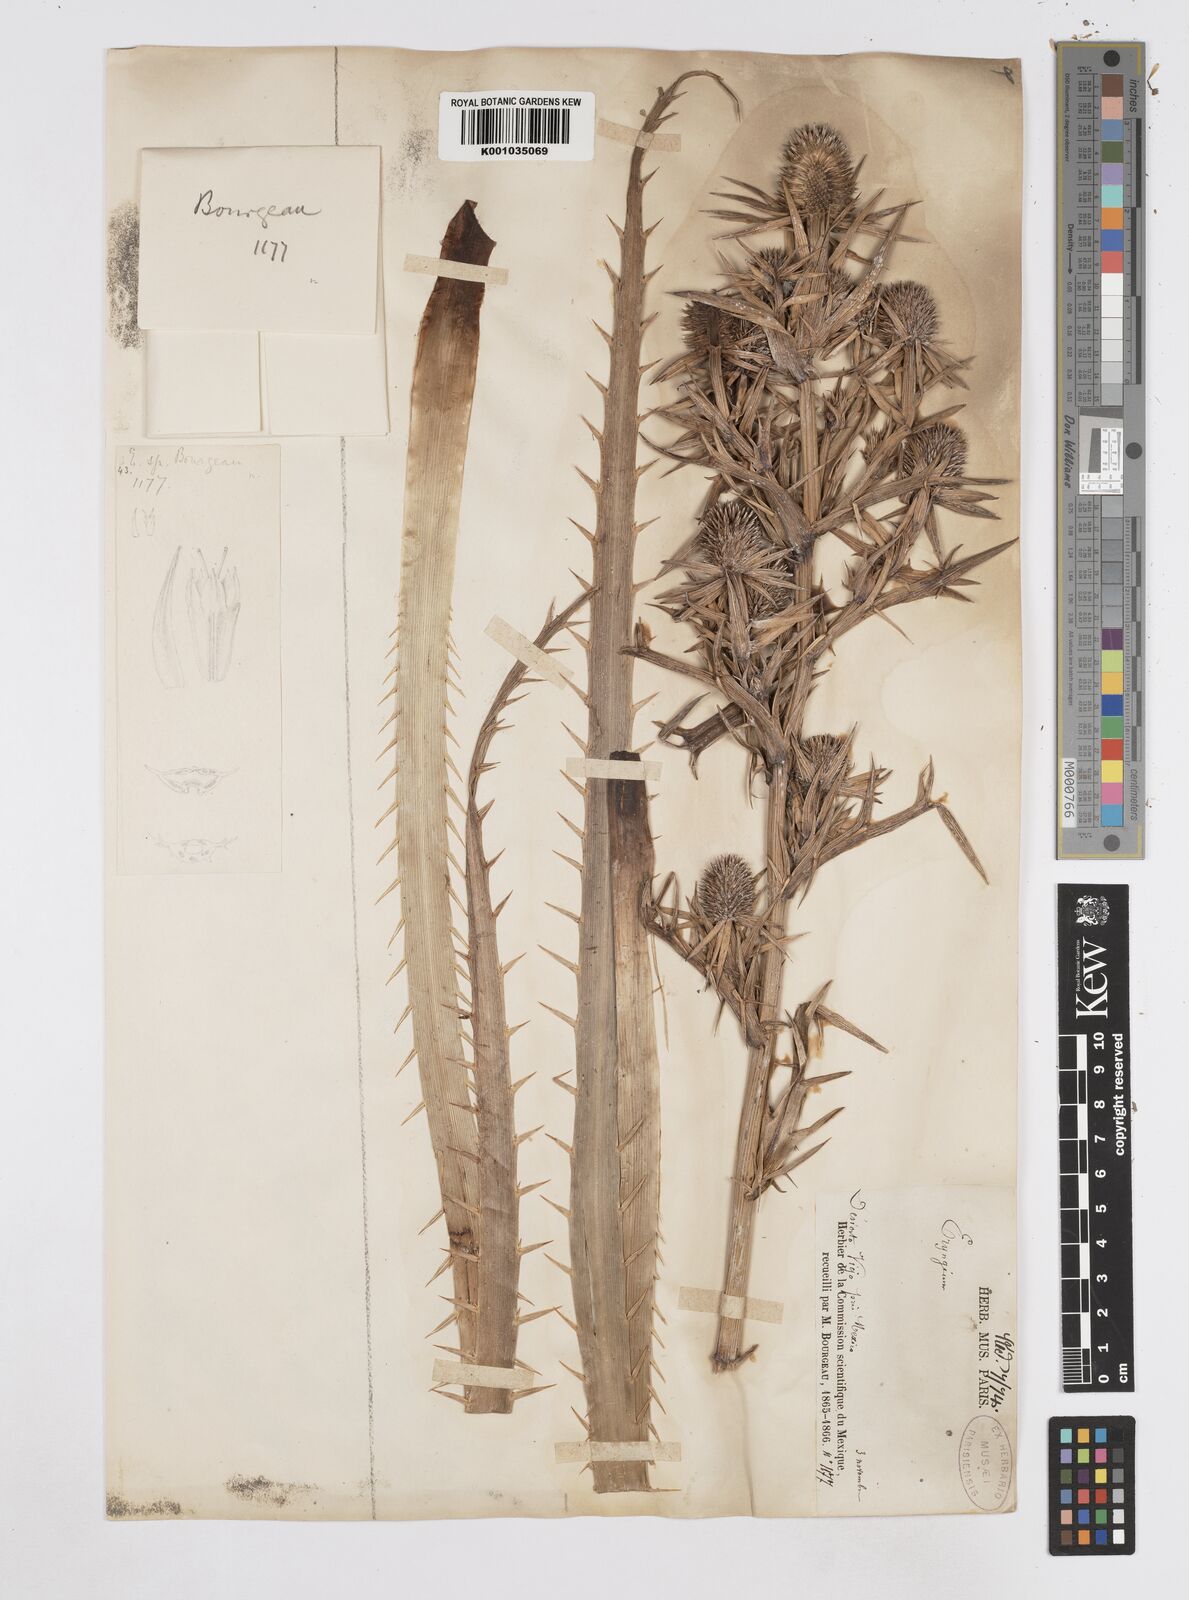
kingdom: Plantae
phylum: Tracheophyta
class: Magnoliopsida
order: Apiales
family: Apiaceae
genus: Eryngium
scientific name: Eryngium monocephalum
